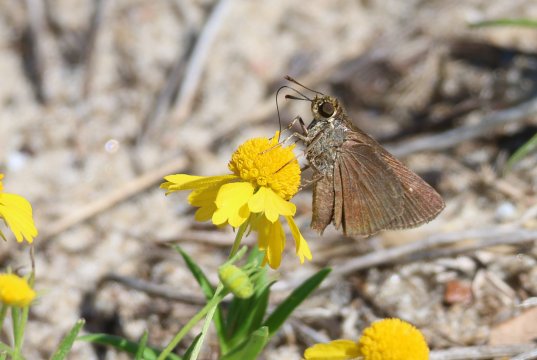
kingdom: Animalia
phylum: Arthropoda
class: Insecta
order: Lepidoptera
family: Hesperiidae
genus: Euphyes
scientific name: Euphyes vestris
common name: Dun Skipper
